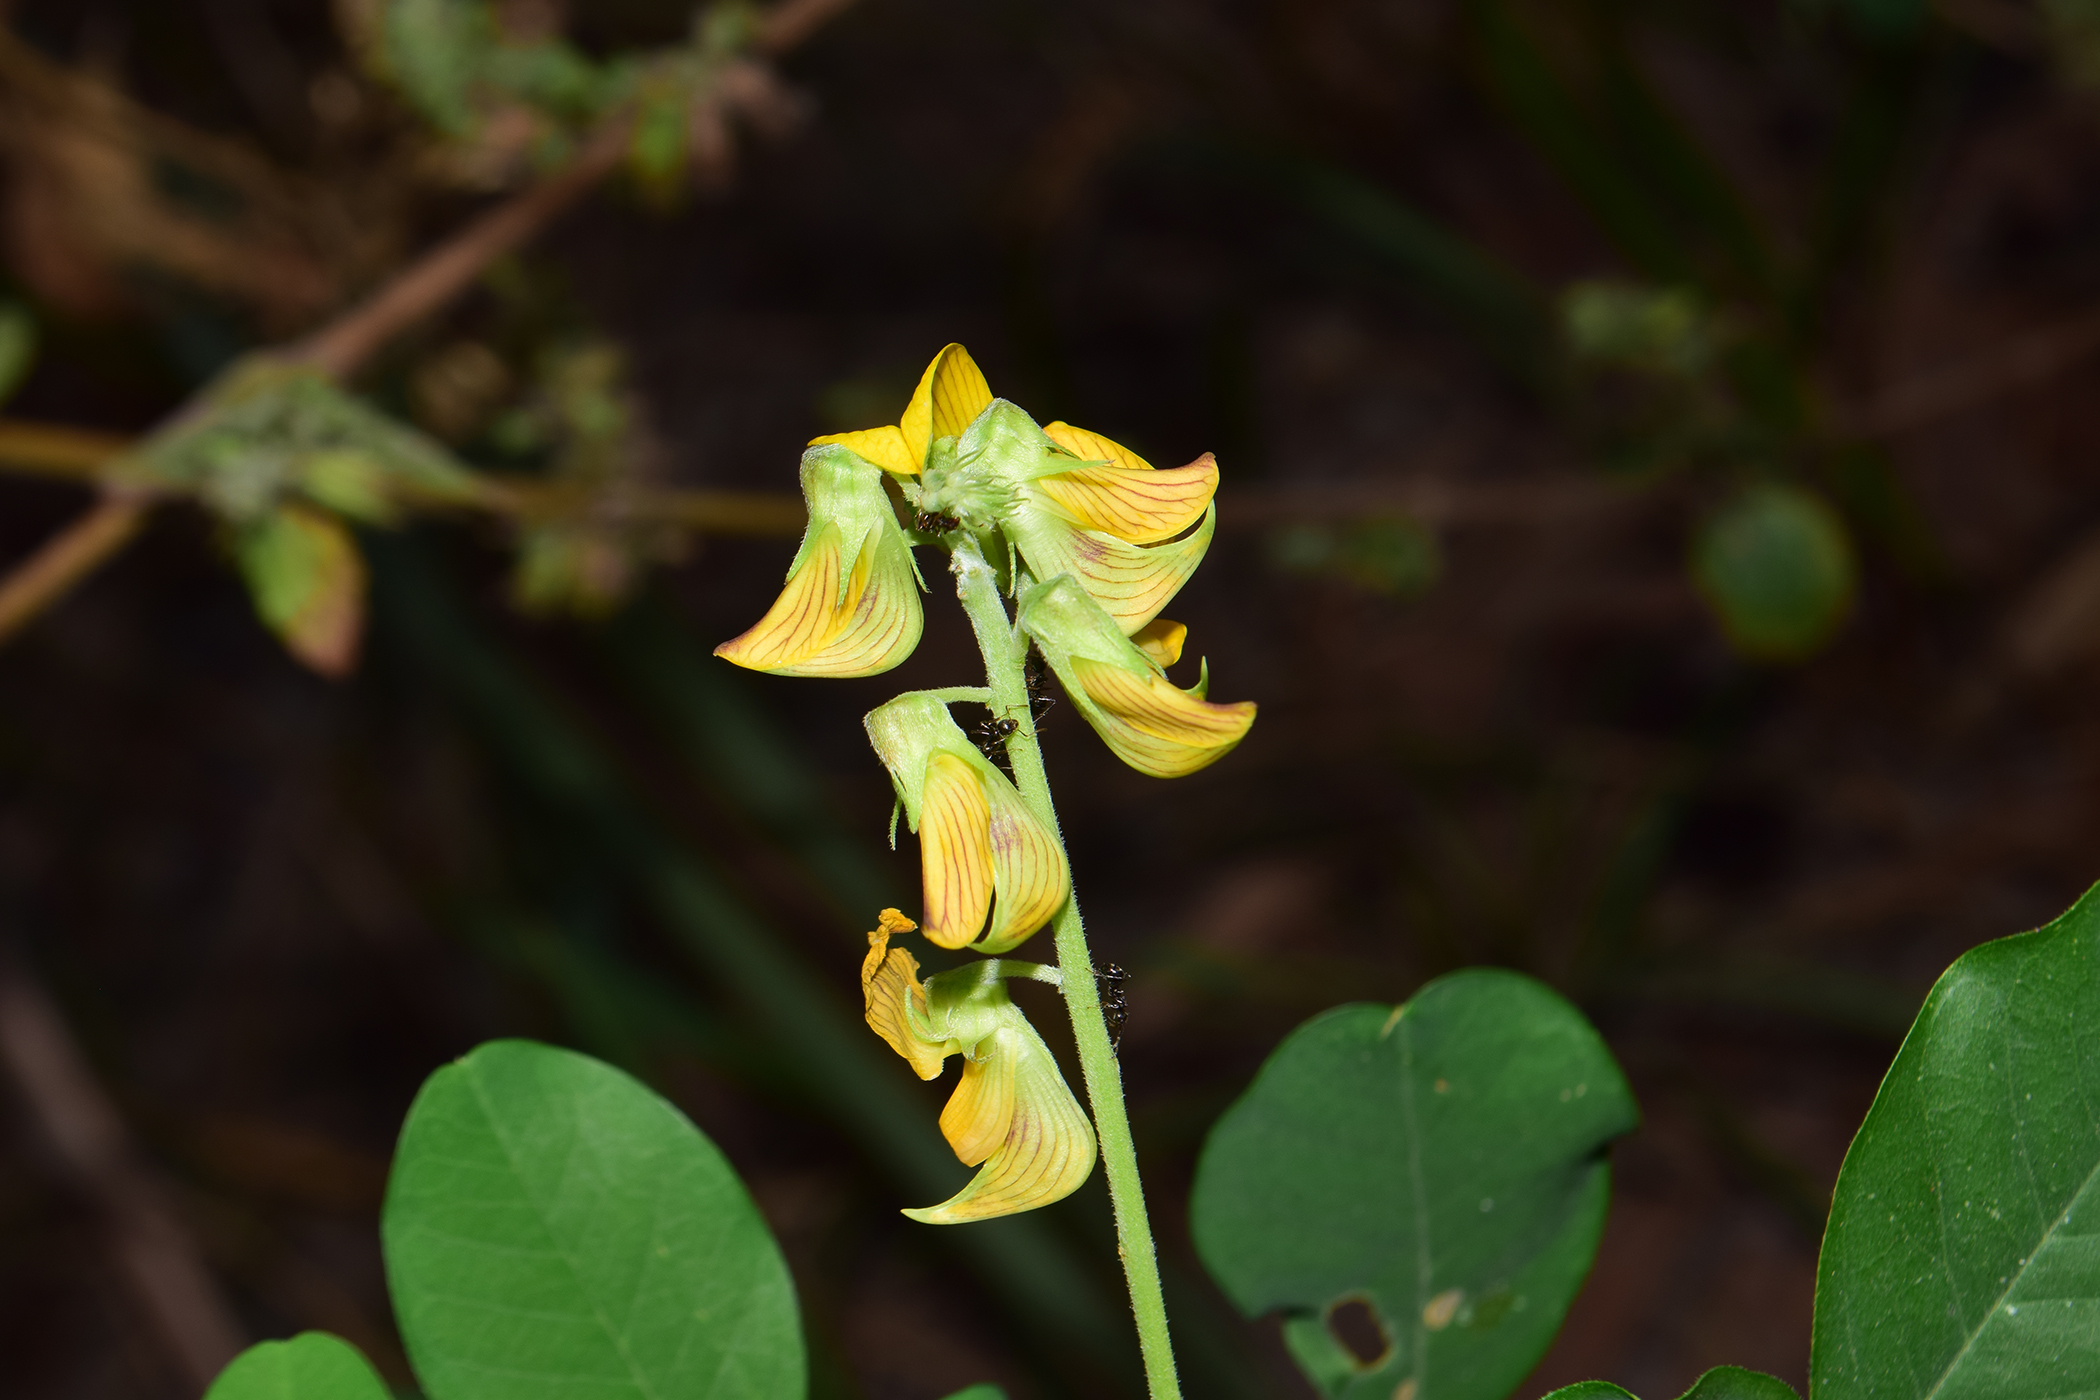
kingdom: Plantae
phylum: Tracheophyta
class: Magnoliopsida
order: Fabales
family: Fabaceae
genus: Crotalaria
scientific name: Crotalaria pallida
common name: Smooth rattlebox
